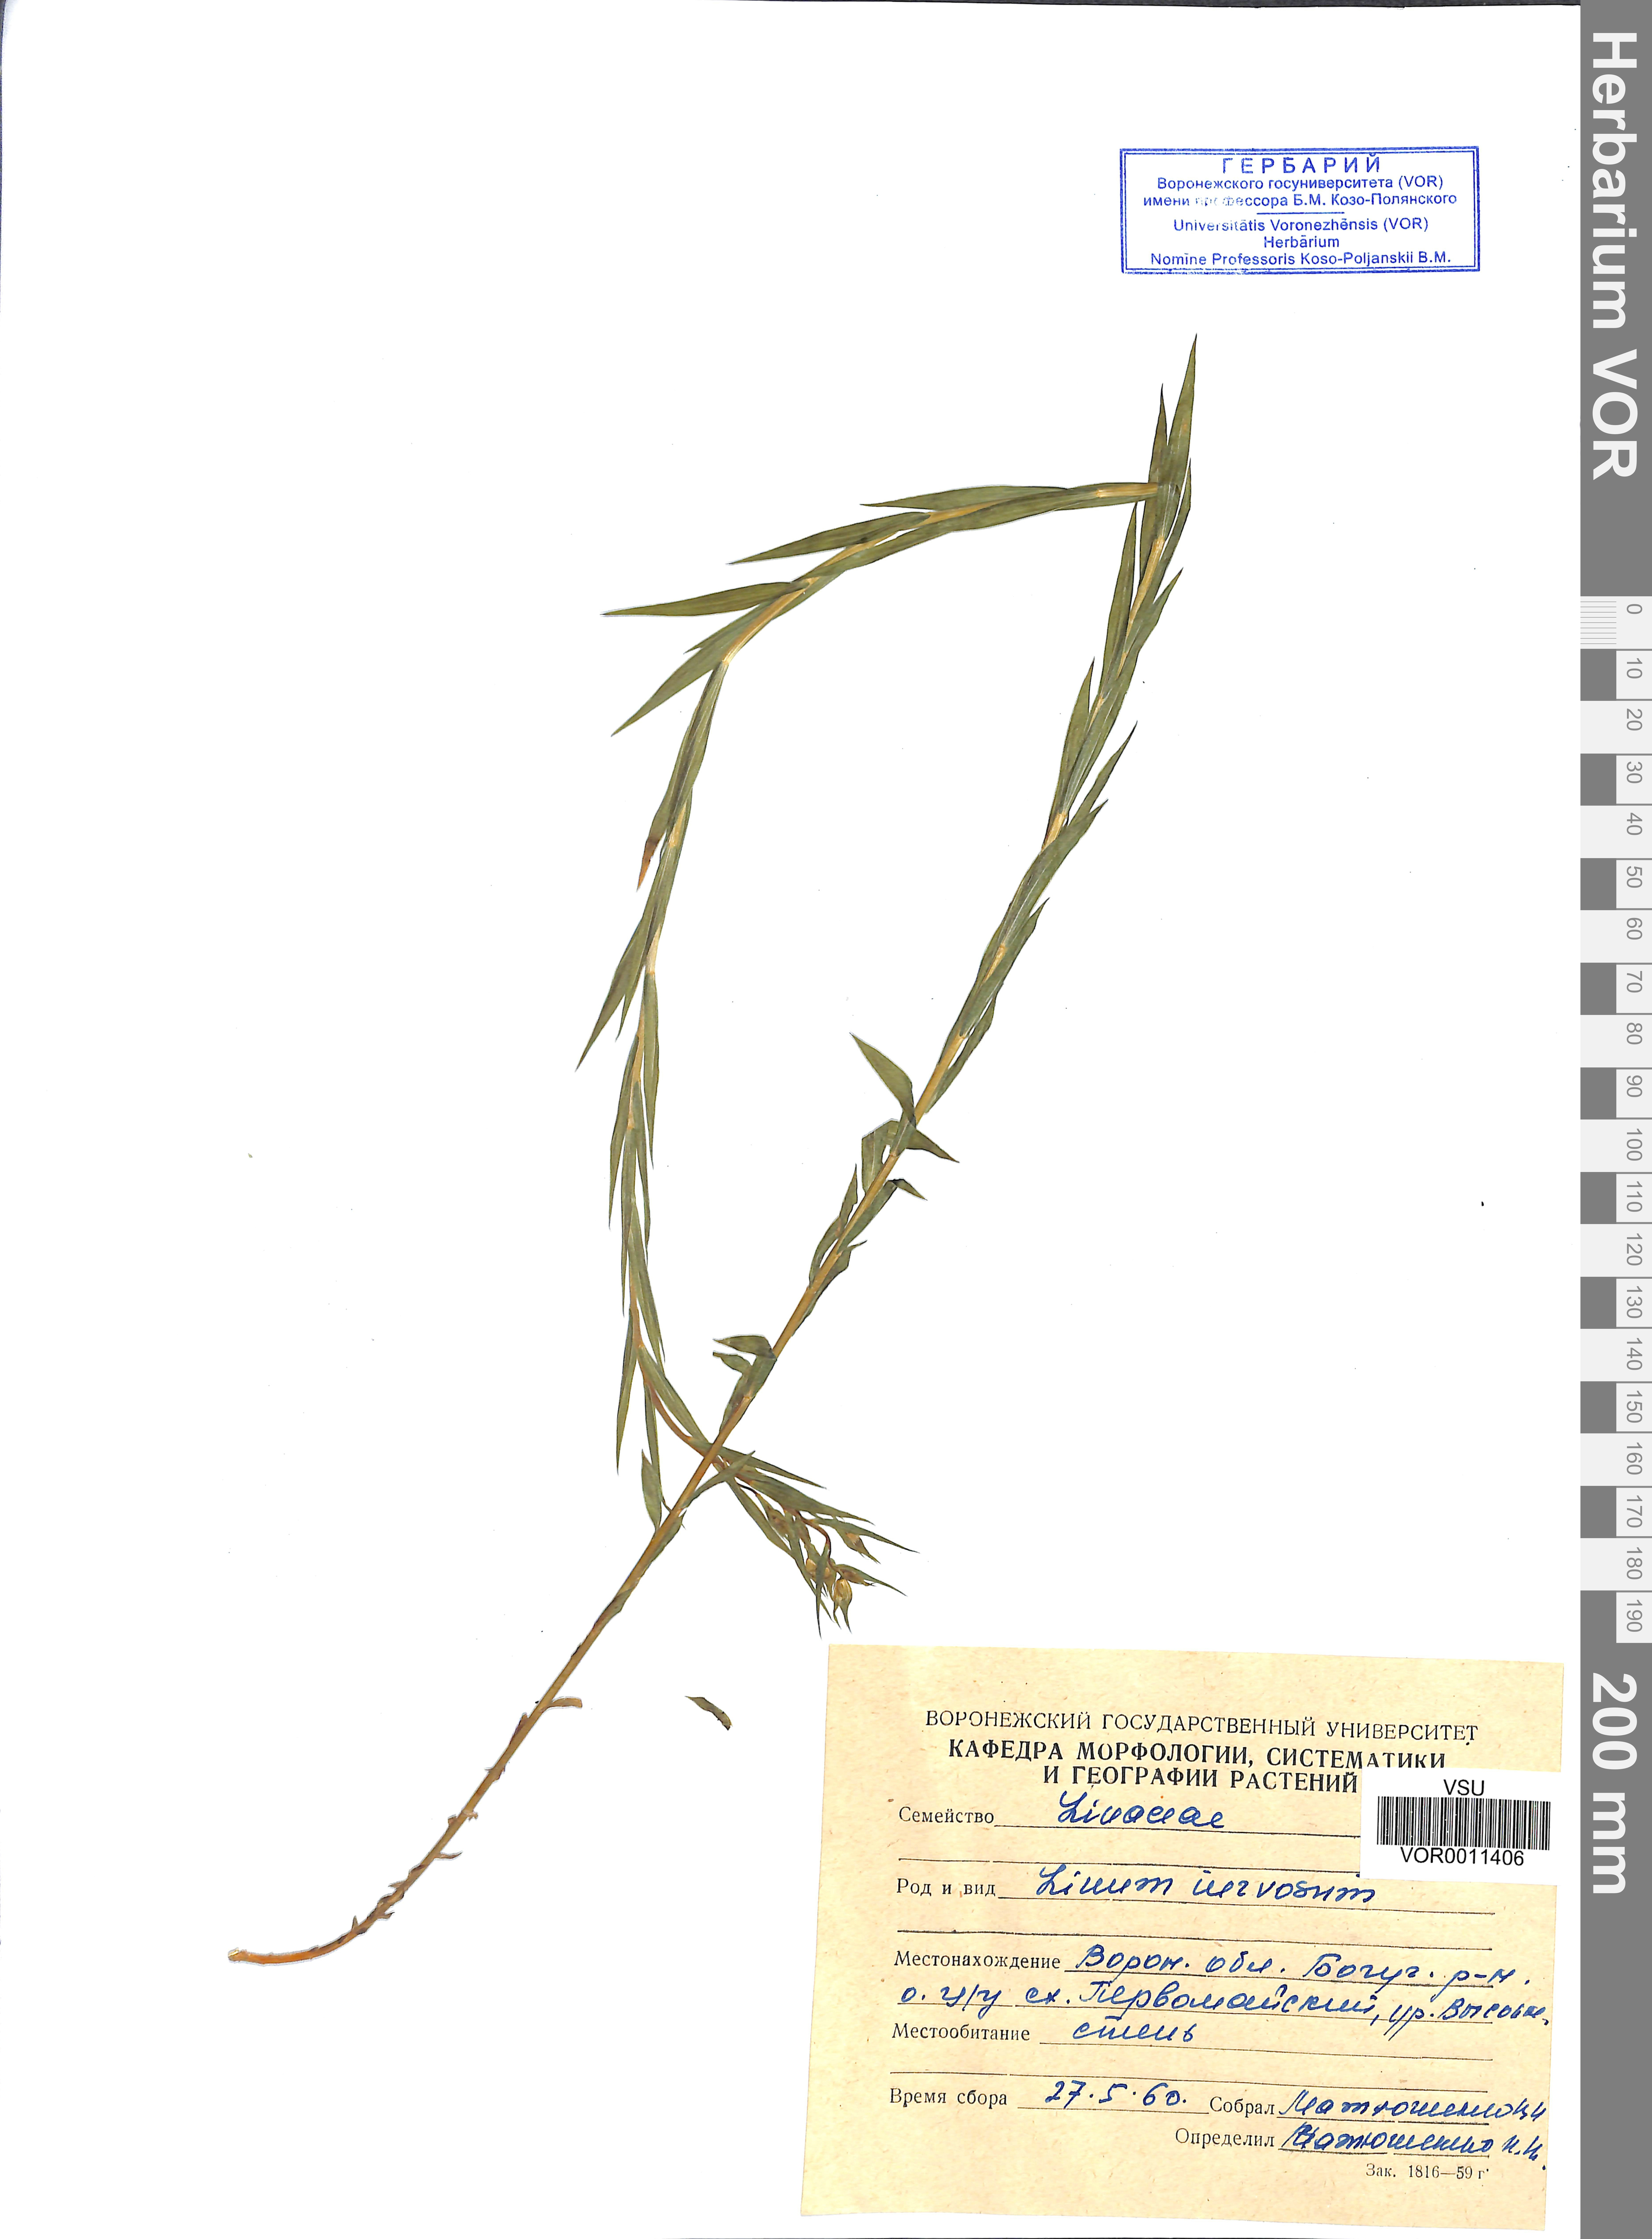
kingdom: Plantae
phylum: Tracheophyta
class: Magnoliopsida
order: Malpighiales
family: Linaceae
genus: Linum
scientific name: Linum nervosum
